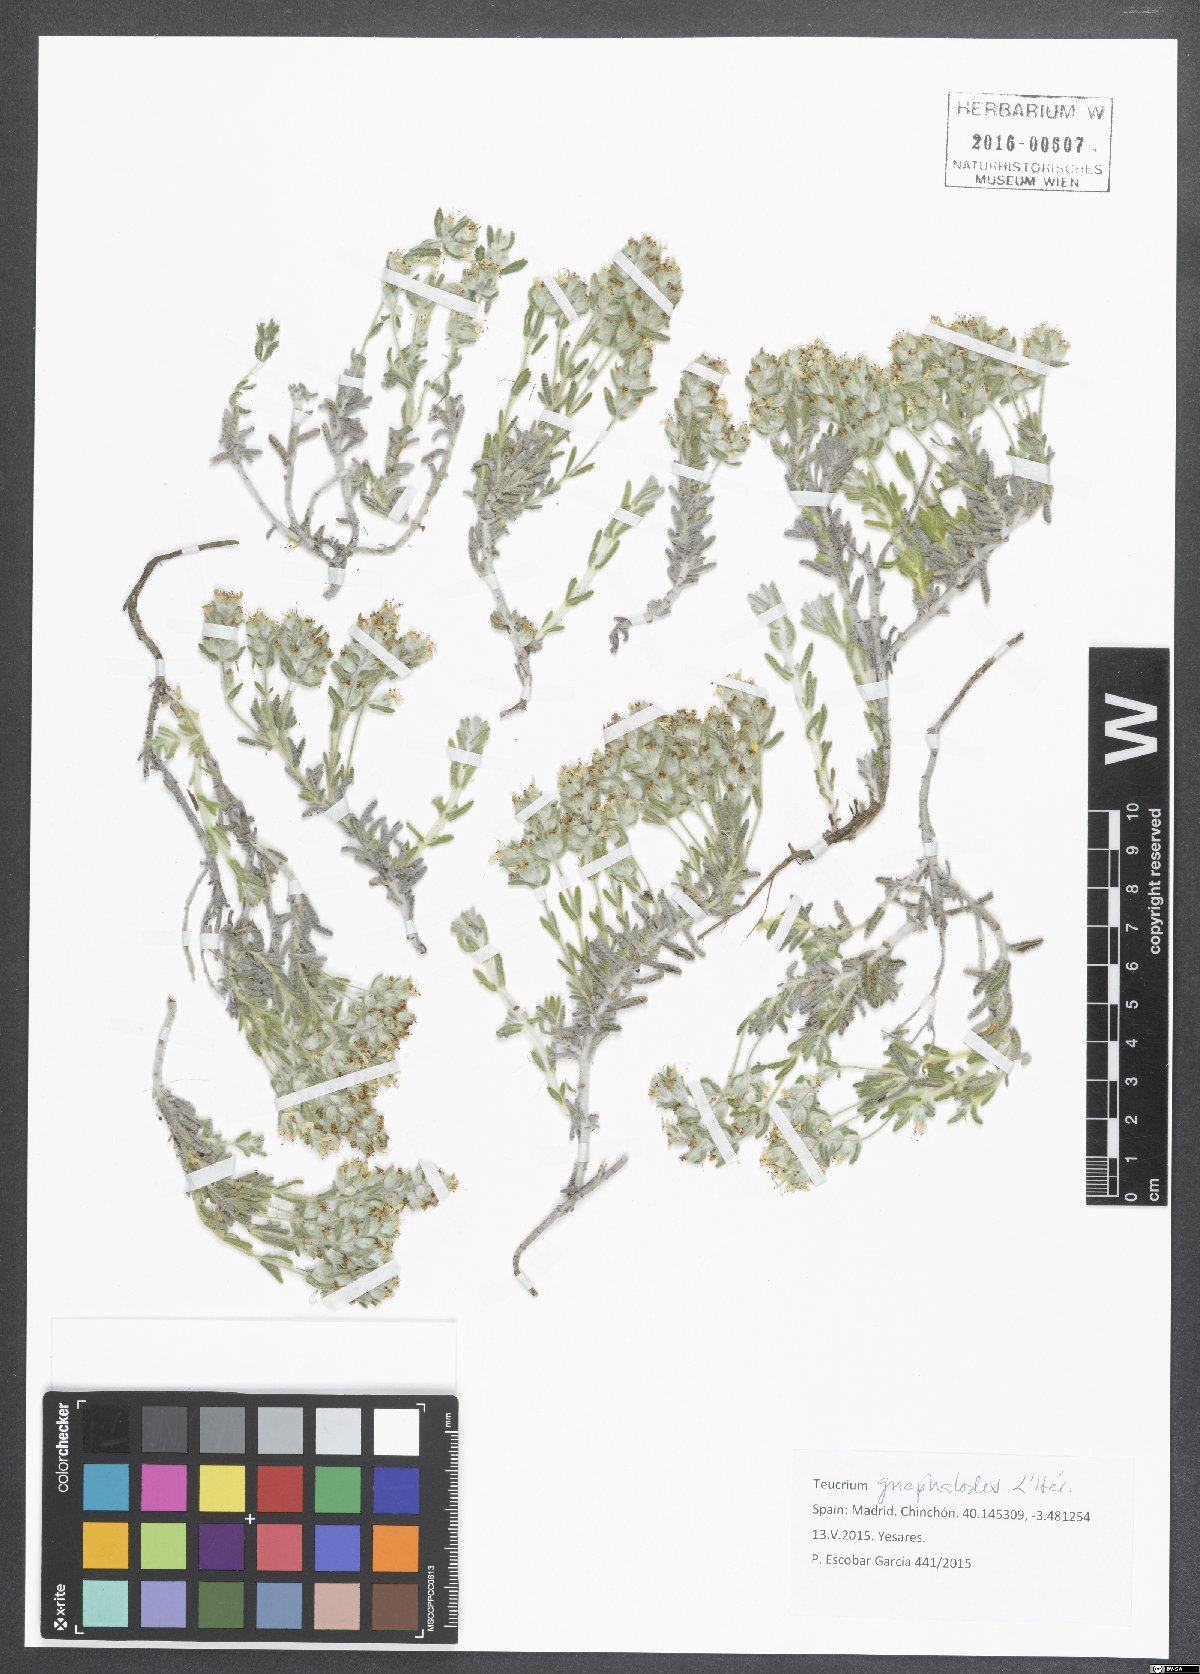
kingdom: Plantae
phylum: Tracheophyta
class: Magnoliopsida
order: Lamiales
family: Lamiaceae
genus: Teucrium
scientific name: Teucrium gnaphalodes
